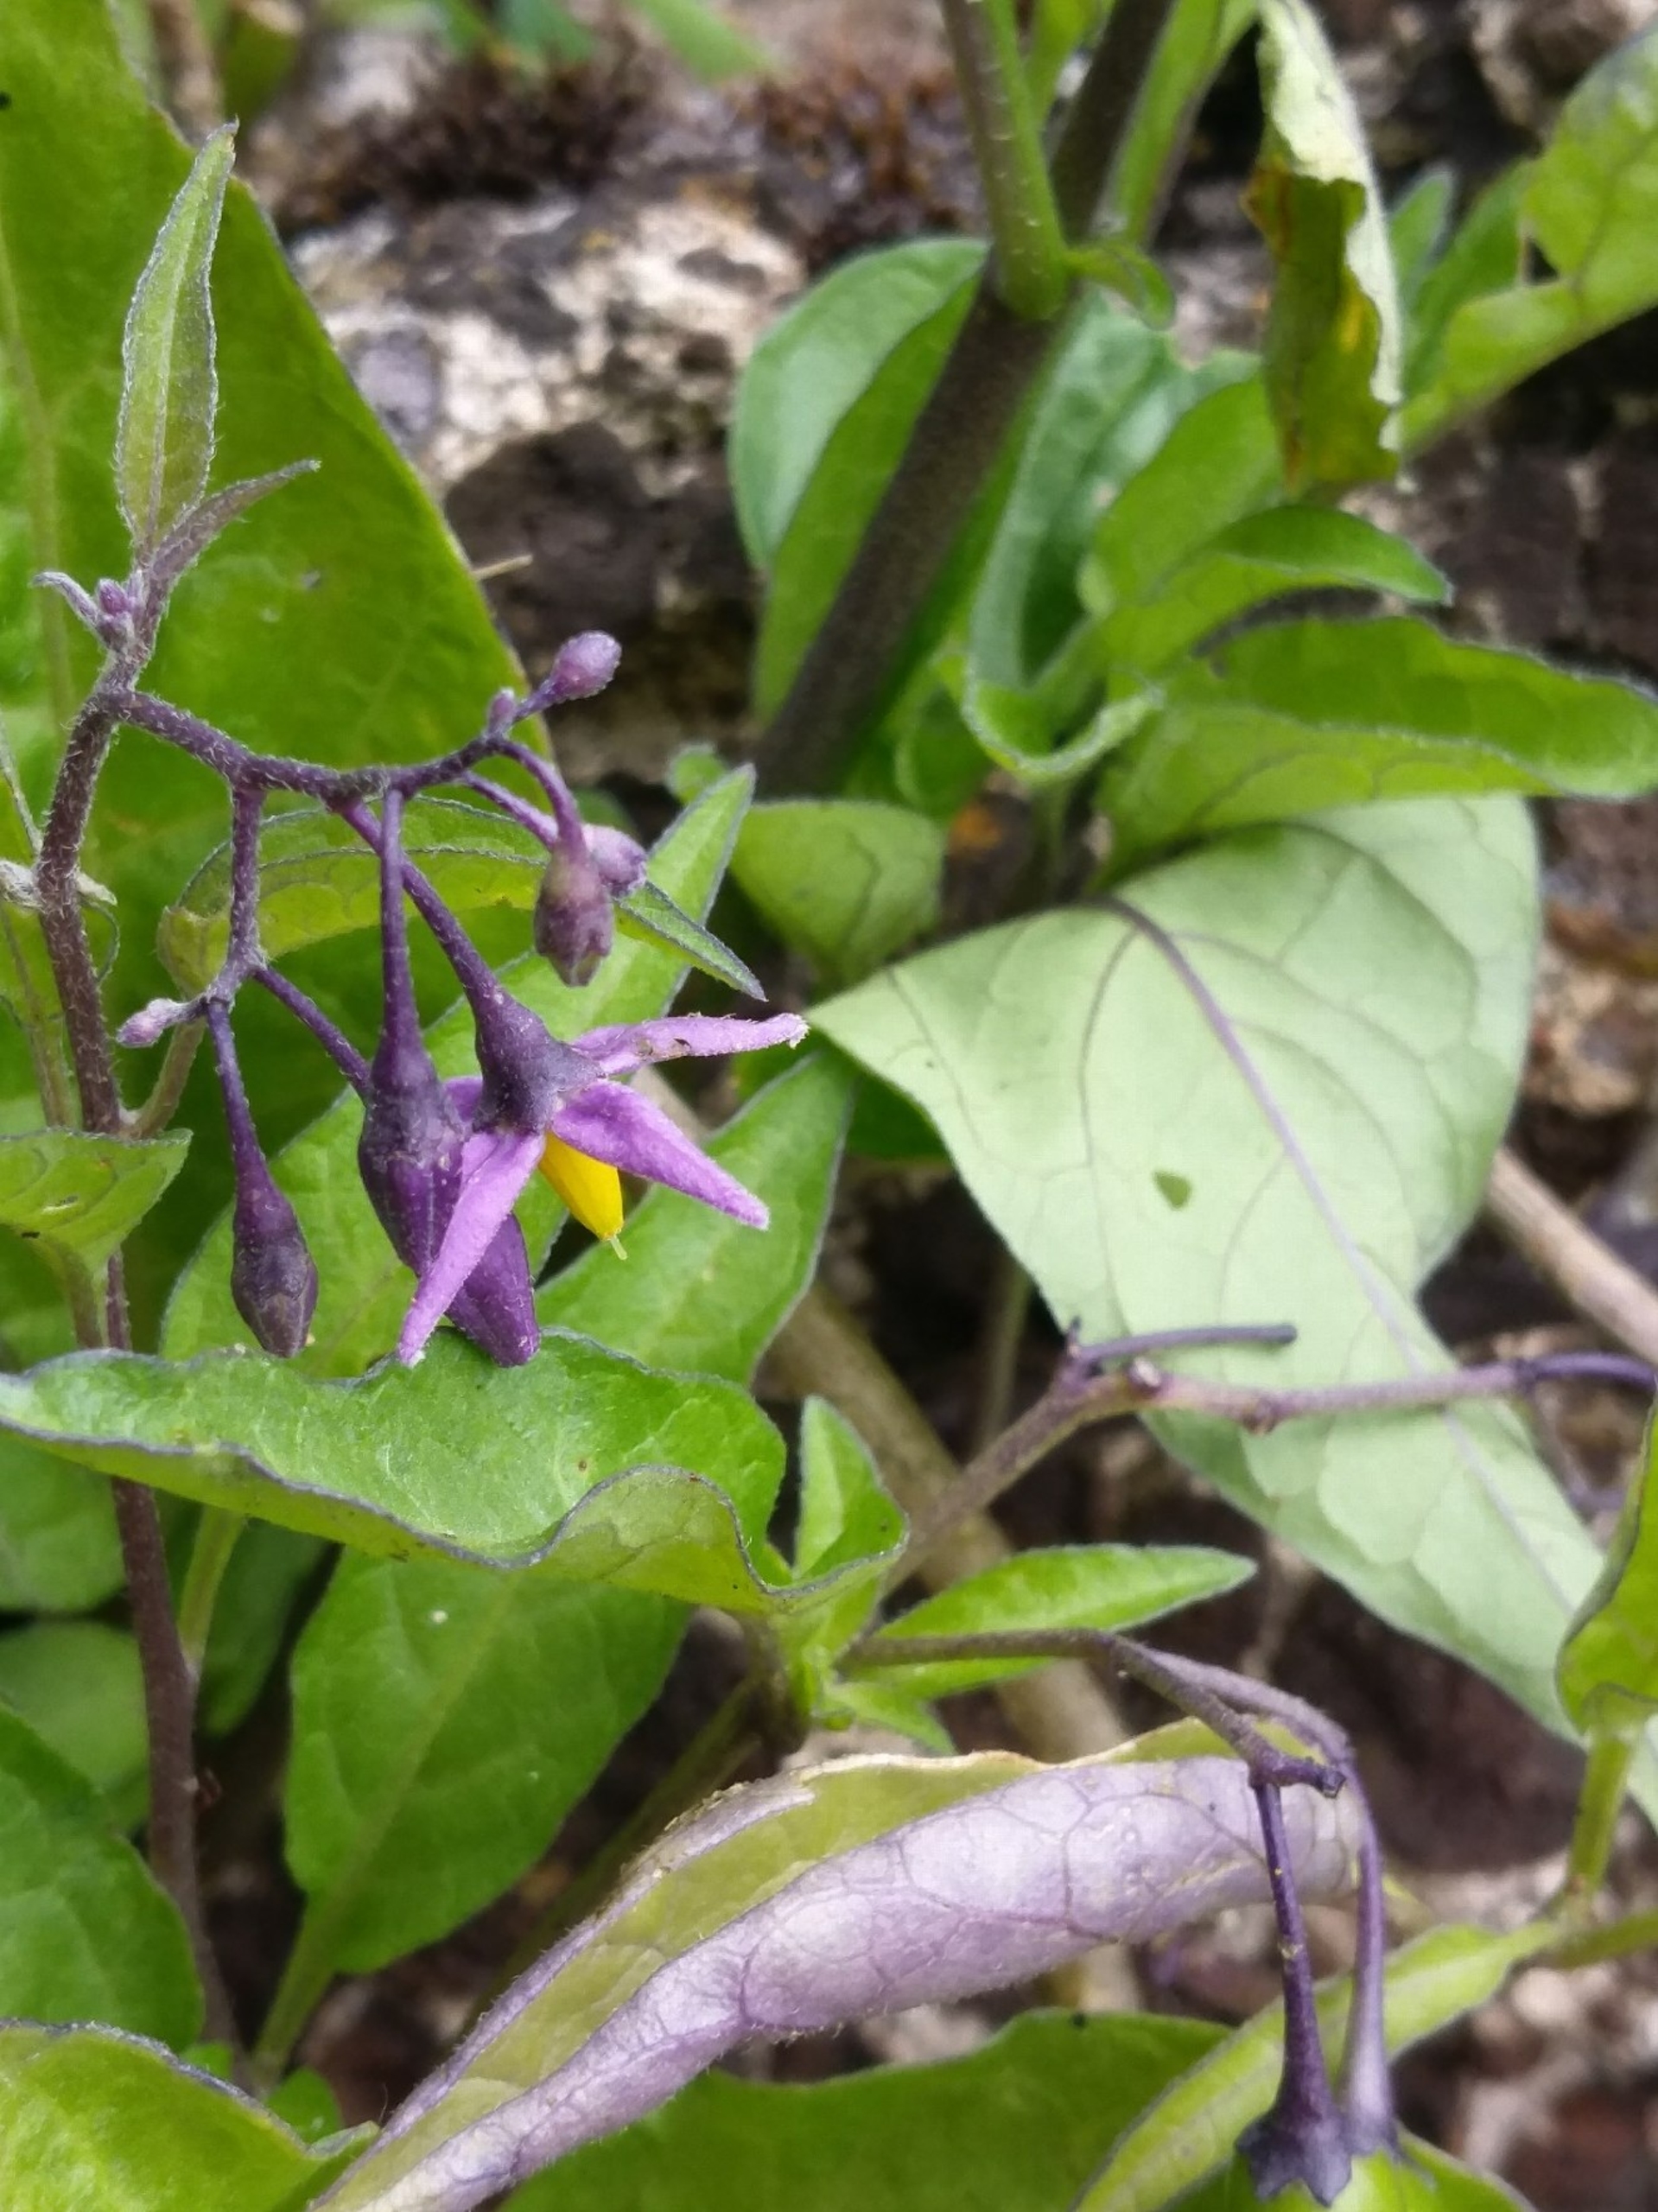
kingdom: Plantae
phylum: Tracheophyta
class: Magnoliopsida
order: Solanales
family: Solanaceae
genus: Solanum
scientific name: Solanum dulcamara
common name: Bittersød natskygge
